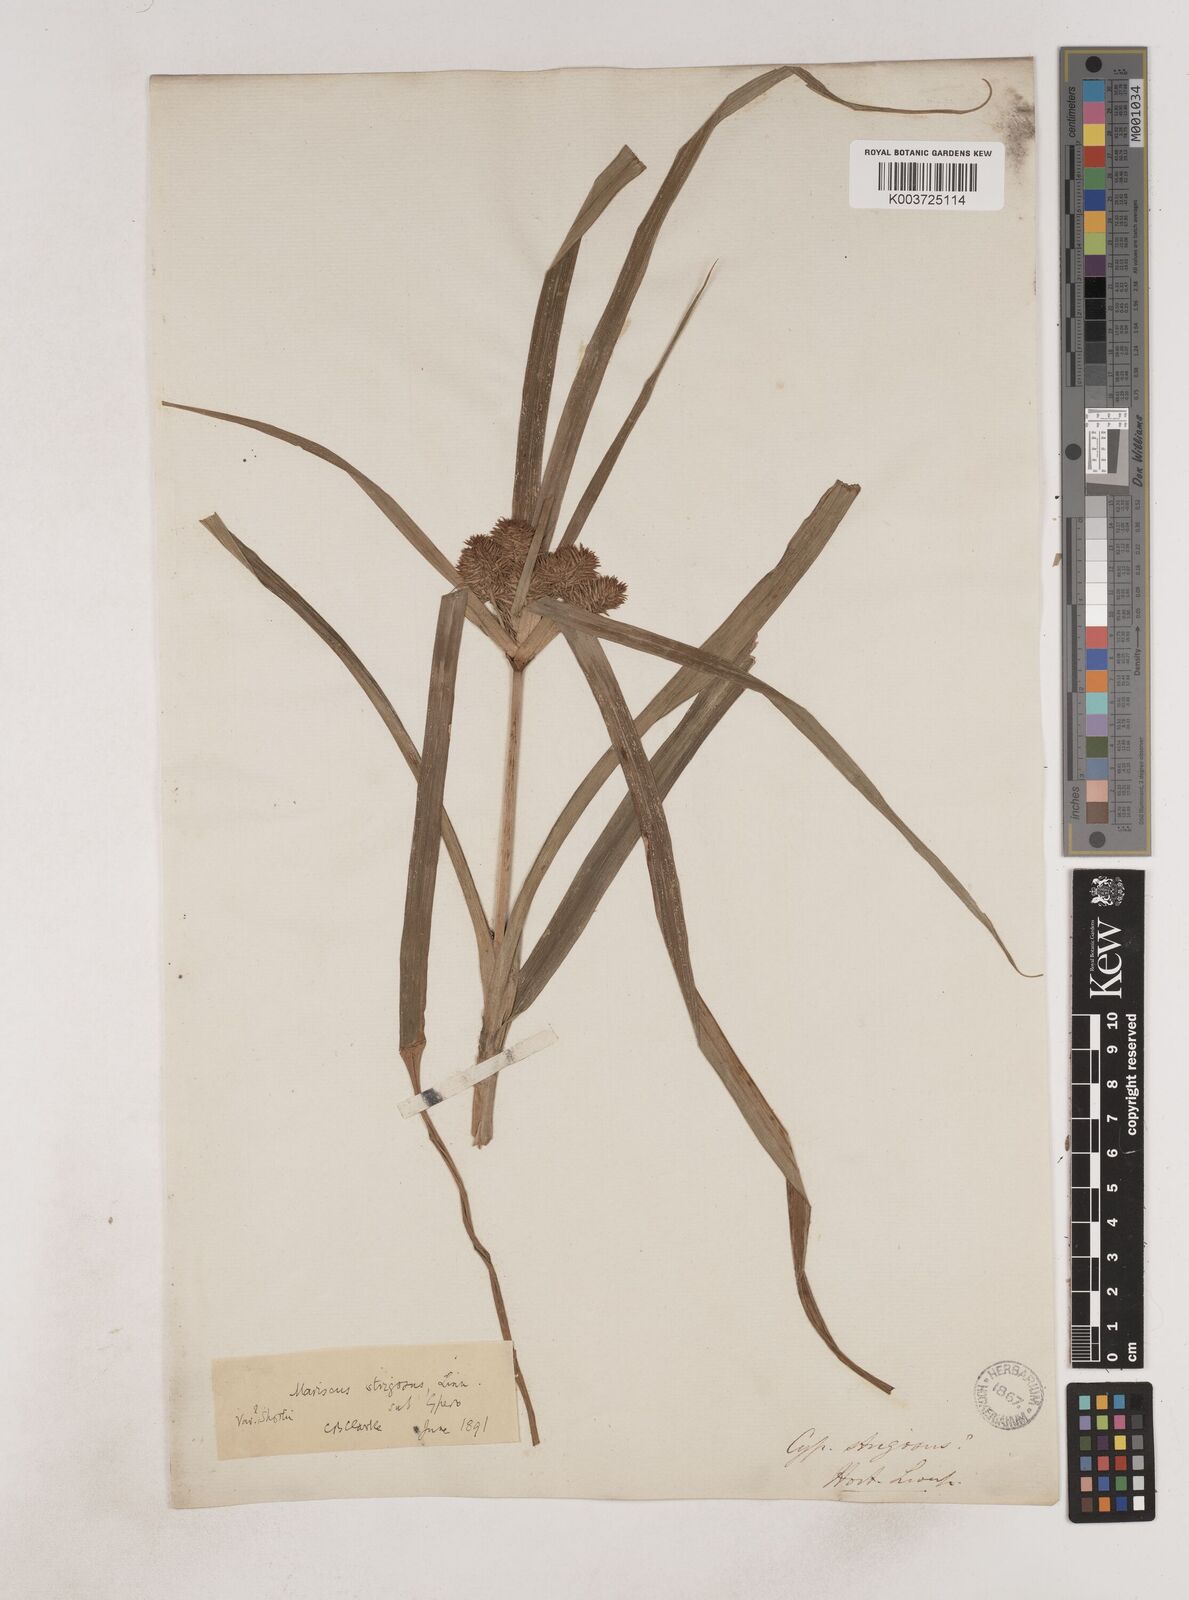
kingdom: Plantae
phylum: Tracheophyta
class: Liliopsida
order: Poales
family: Cyperaceae
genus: Cyperus
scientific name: Cyperus strigosus
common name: False nutsedge
